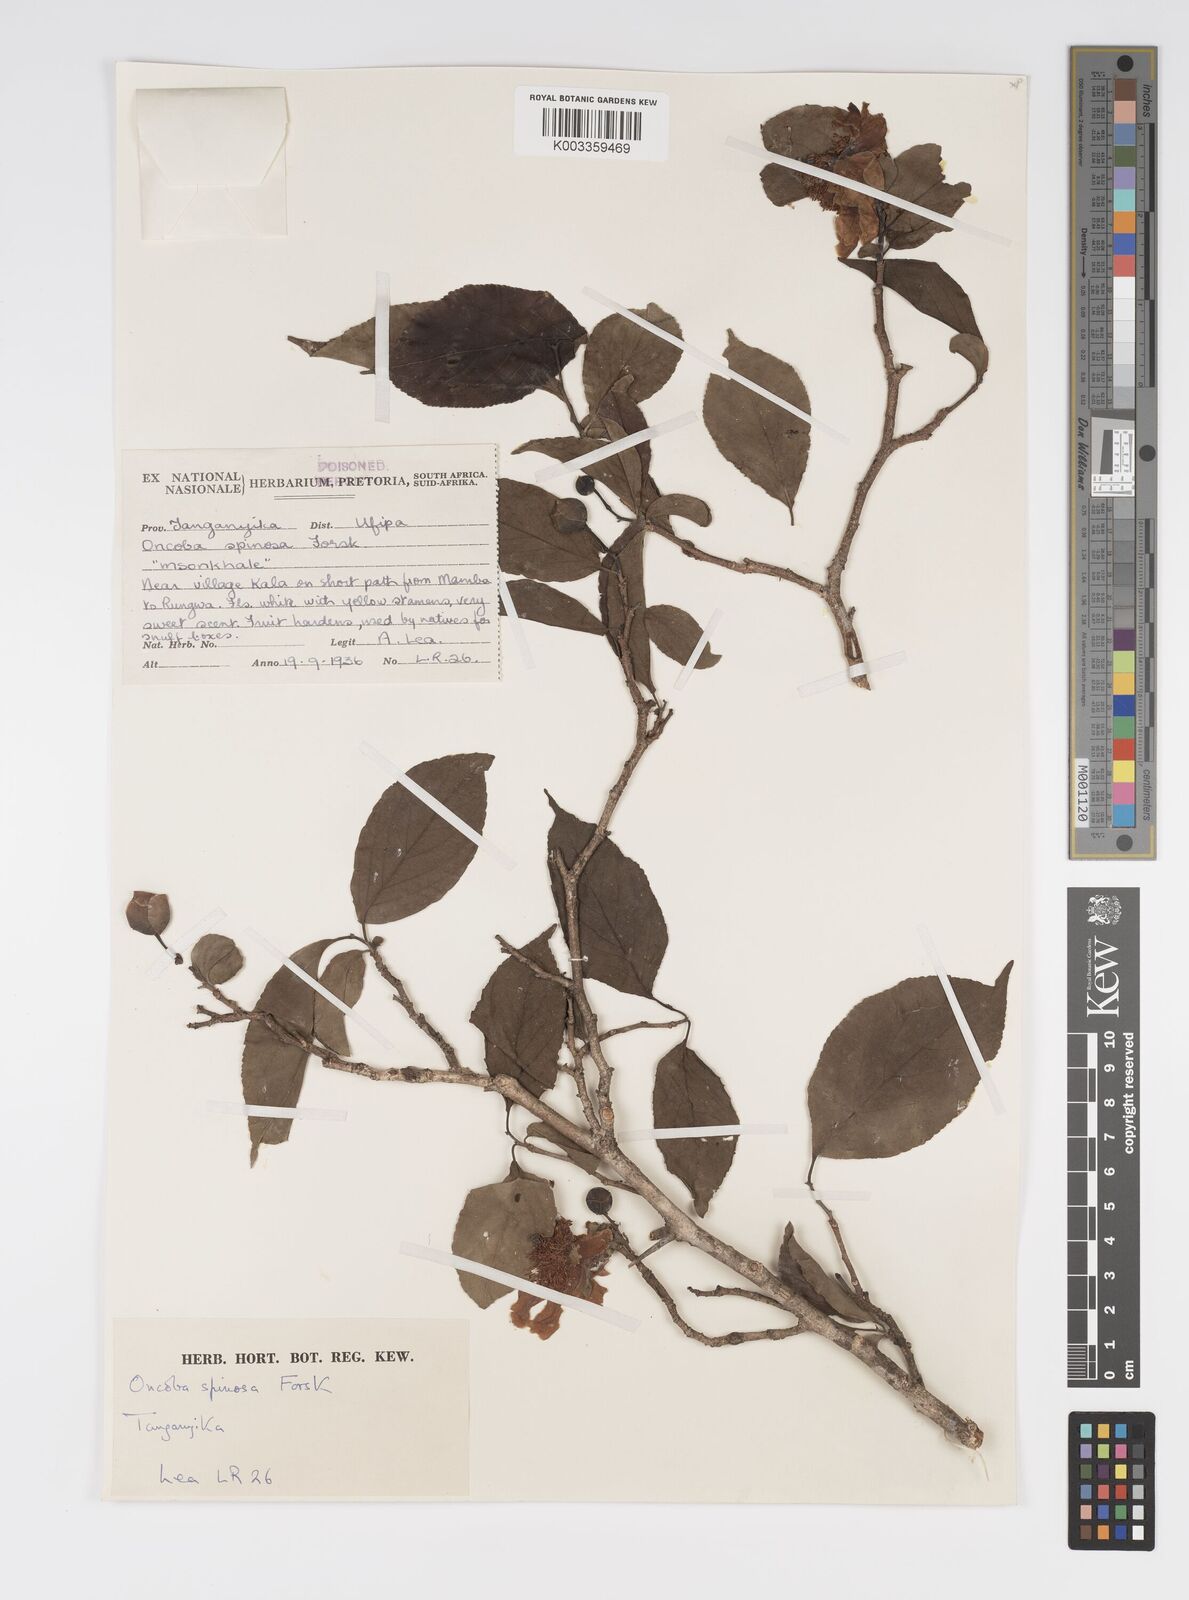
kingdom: Plantae
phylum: Tracheophyta
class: Magnoliopsida
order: Malpighiales
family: Salicaceae
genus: Oncoba
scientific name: Oncoba spinosa
